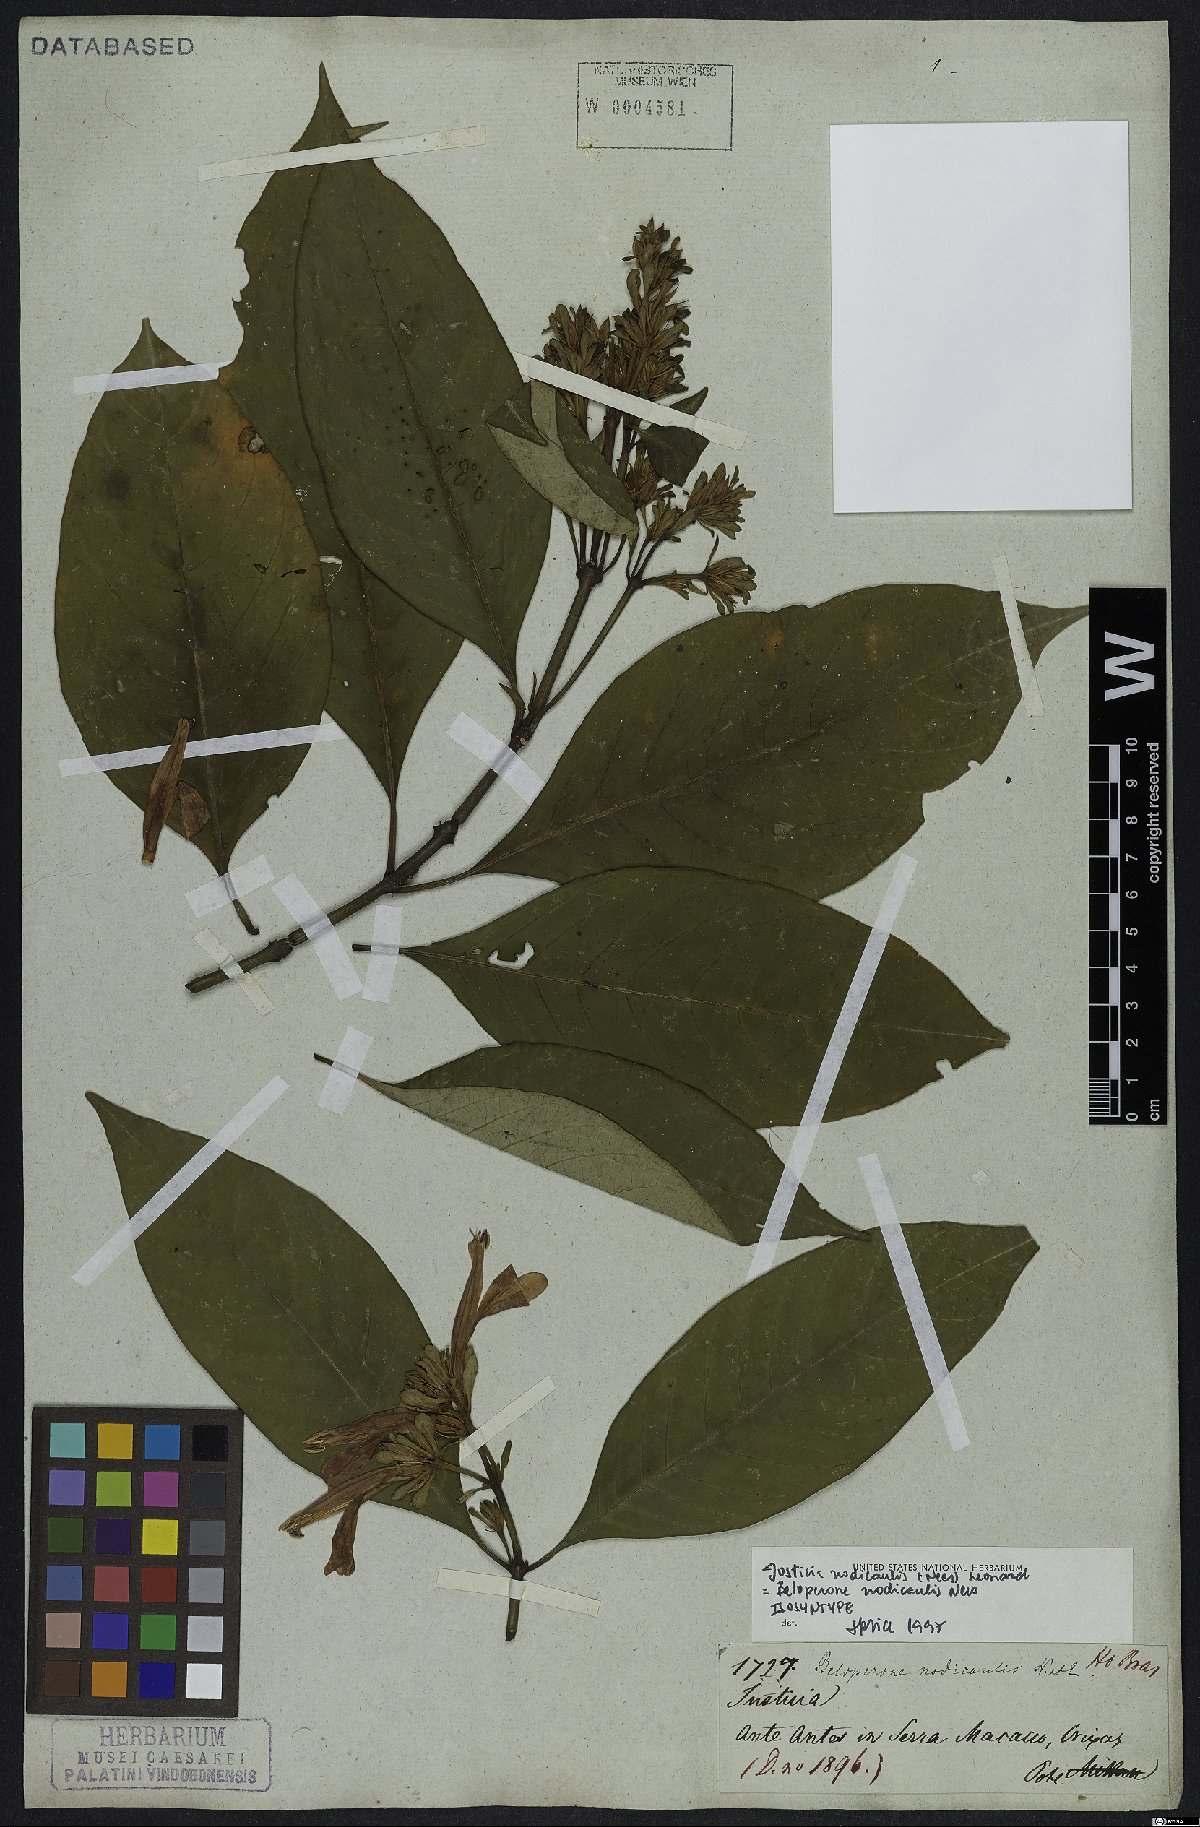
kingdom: Plantae
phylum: Tracheophyta
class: Magnoliopsida
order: Lamiales
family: Acanthaceae
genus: Justicia
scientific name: Justicia nodicaulis
